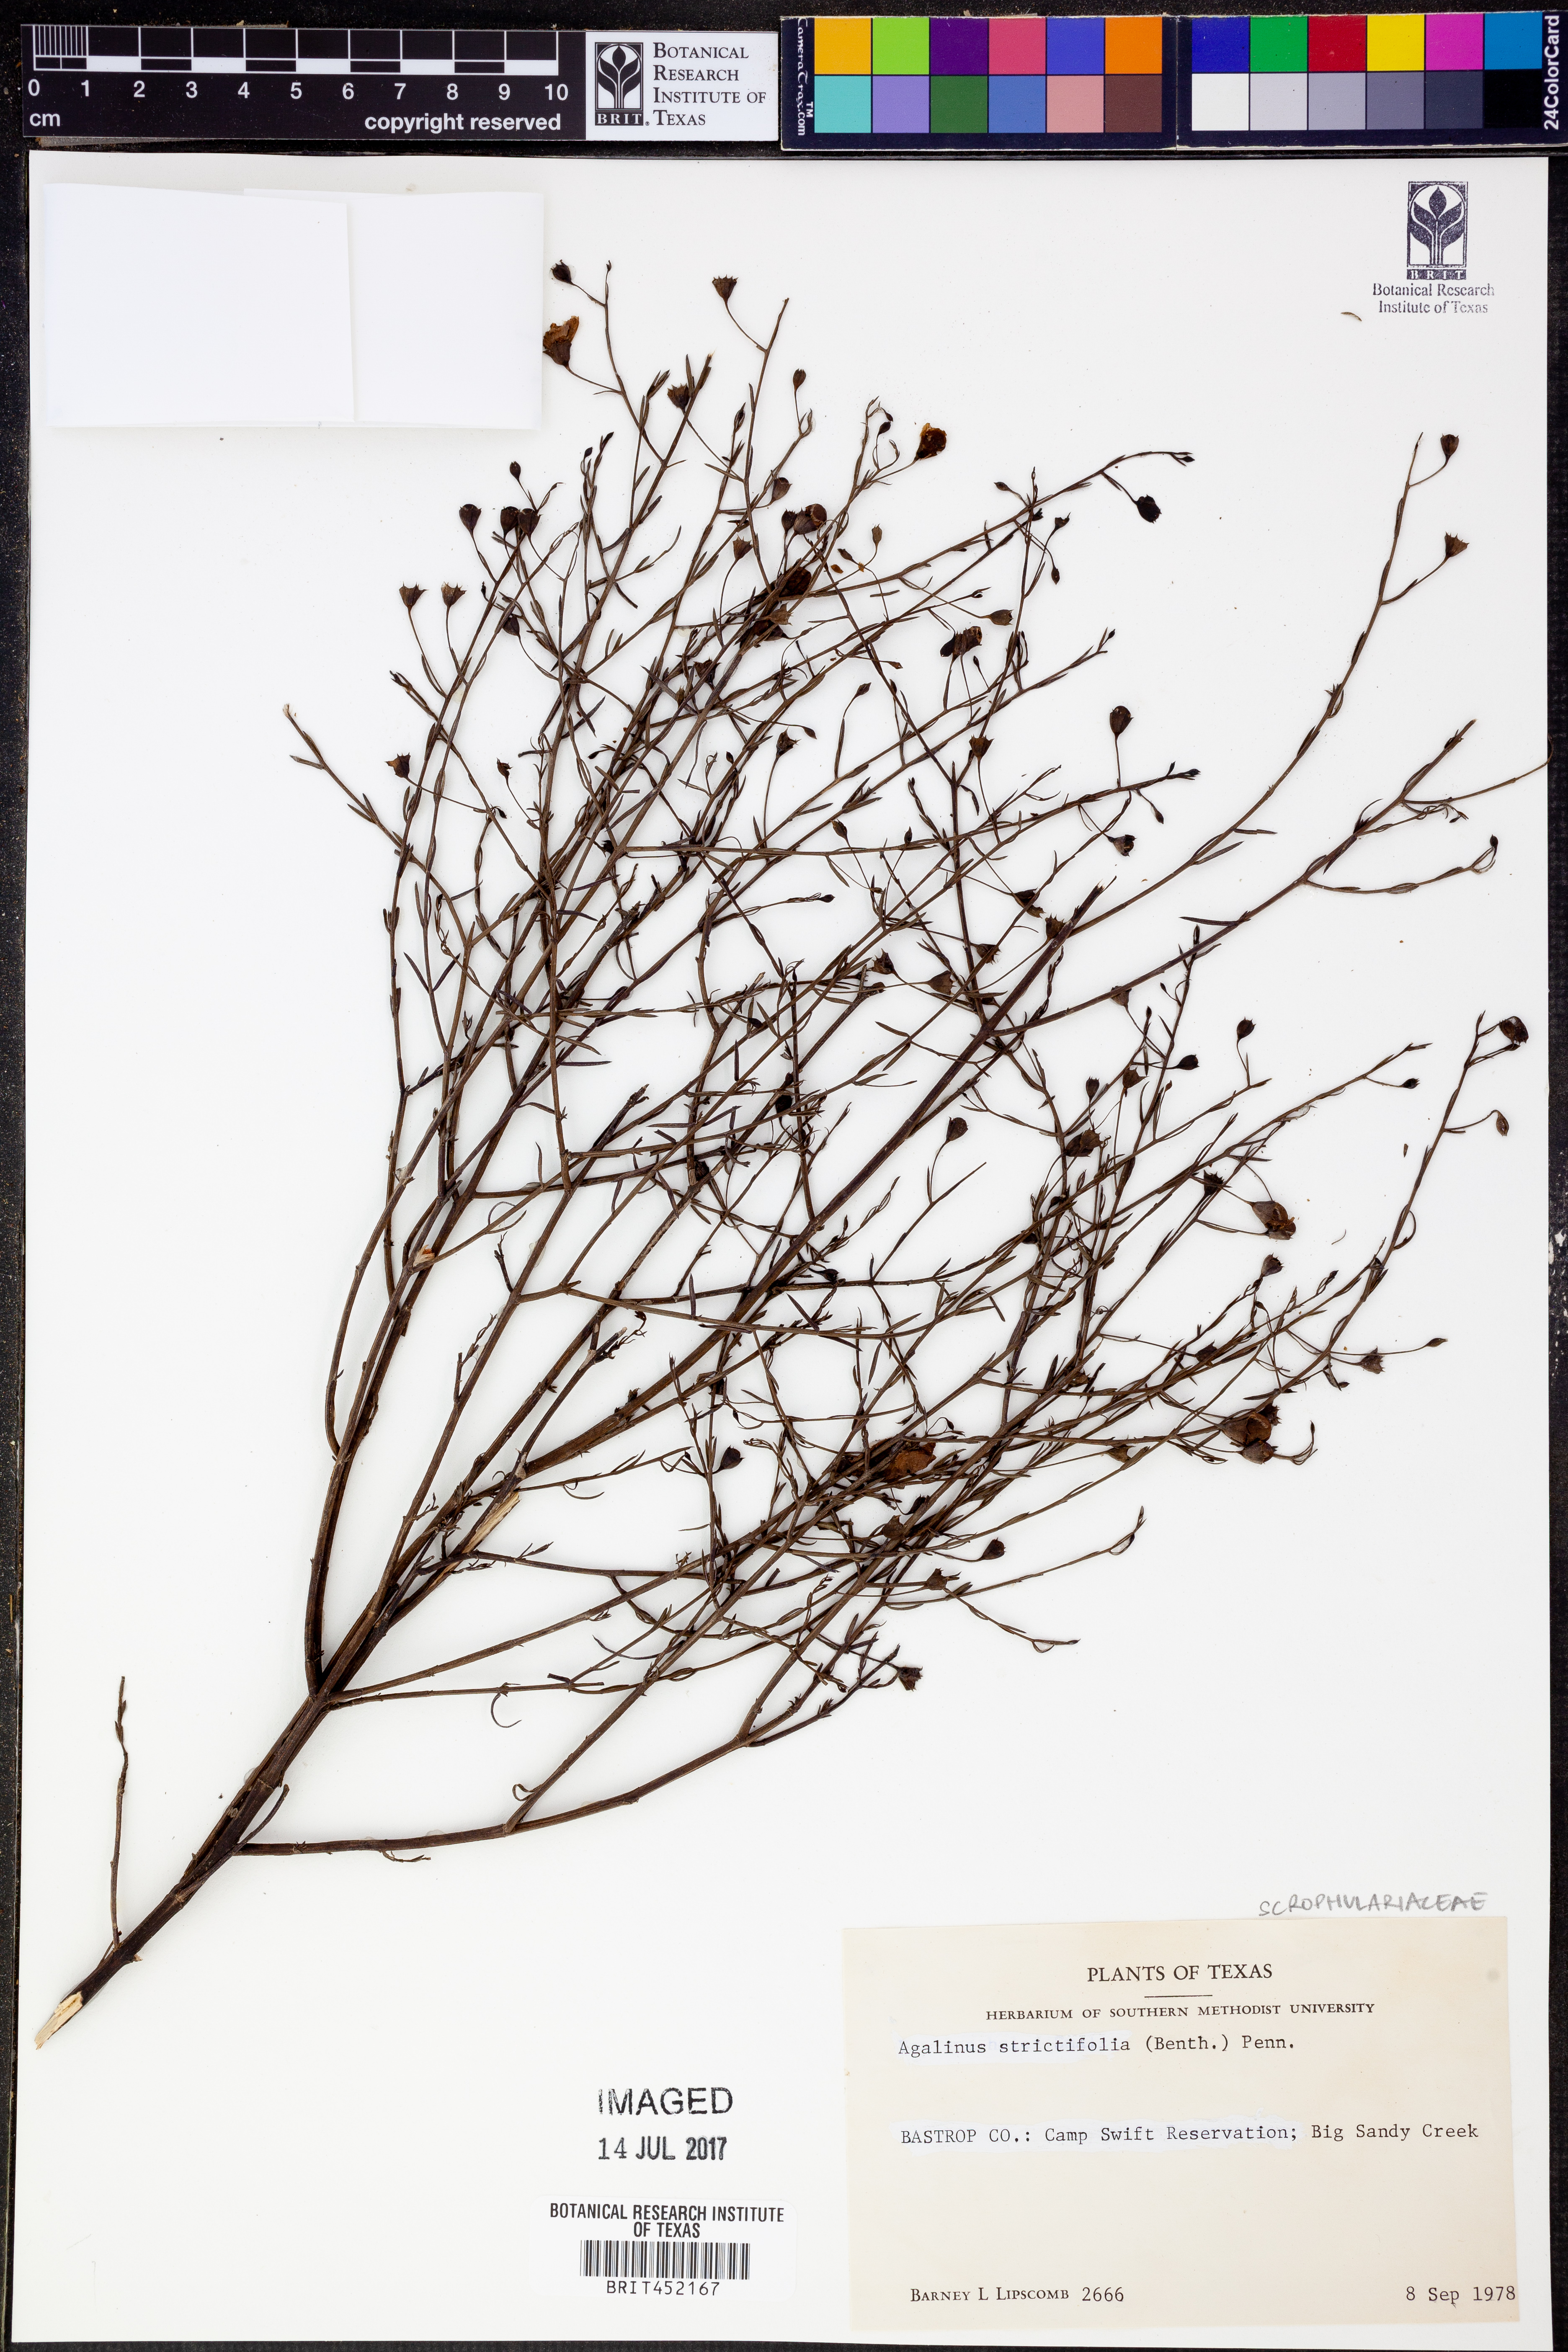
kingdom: Plantae
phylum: Tracheophyta
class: Magnoliopsida
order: Lamiales
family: Orobanchaceae
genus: Agalinis
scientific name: Agalinis strictifolia
